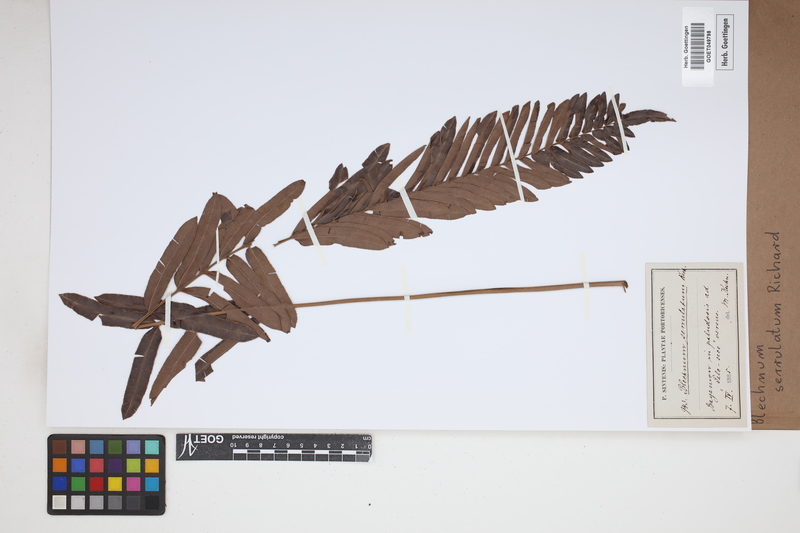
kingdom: Plantae
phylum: Tracheophyta
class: Polypodiopsida
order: Polypodiales
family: Blechnaceae
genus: Telmatoblechnum
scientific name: Telmatoblechnum serrulatum
